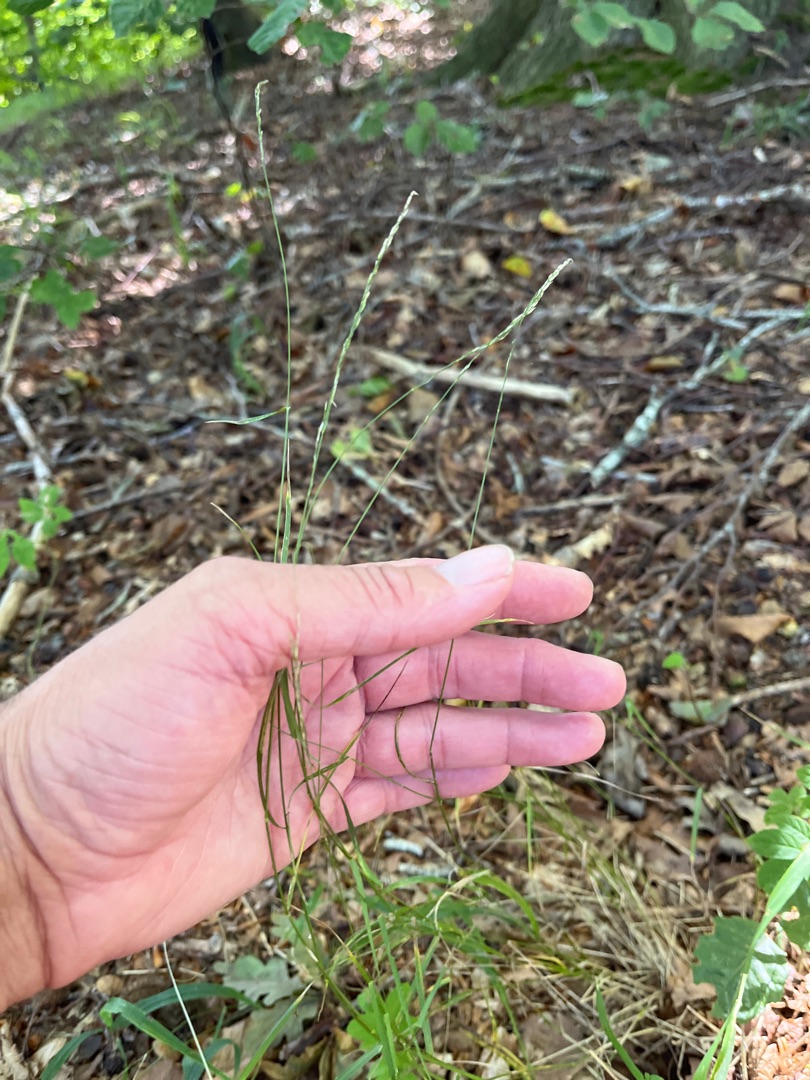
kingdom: Plantae
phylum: Tracheophyta
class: Liliopsida
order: Poales
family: Poaceae
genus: Poa
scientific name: Poa nemoralis
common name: Lund-rapgræs
